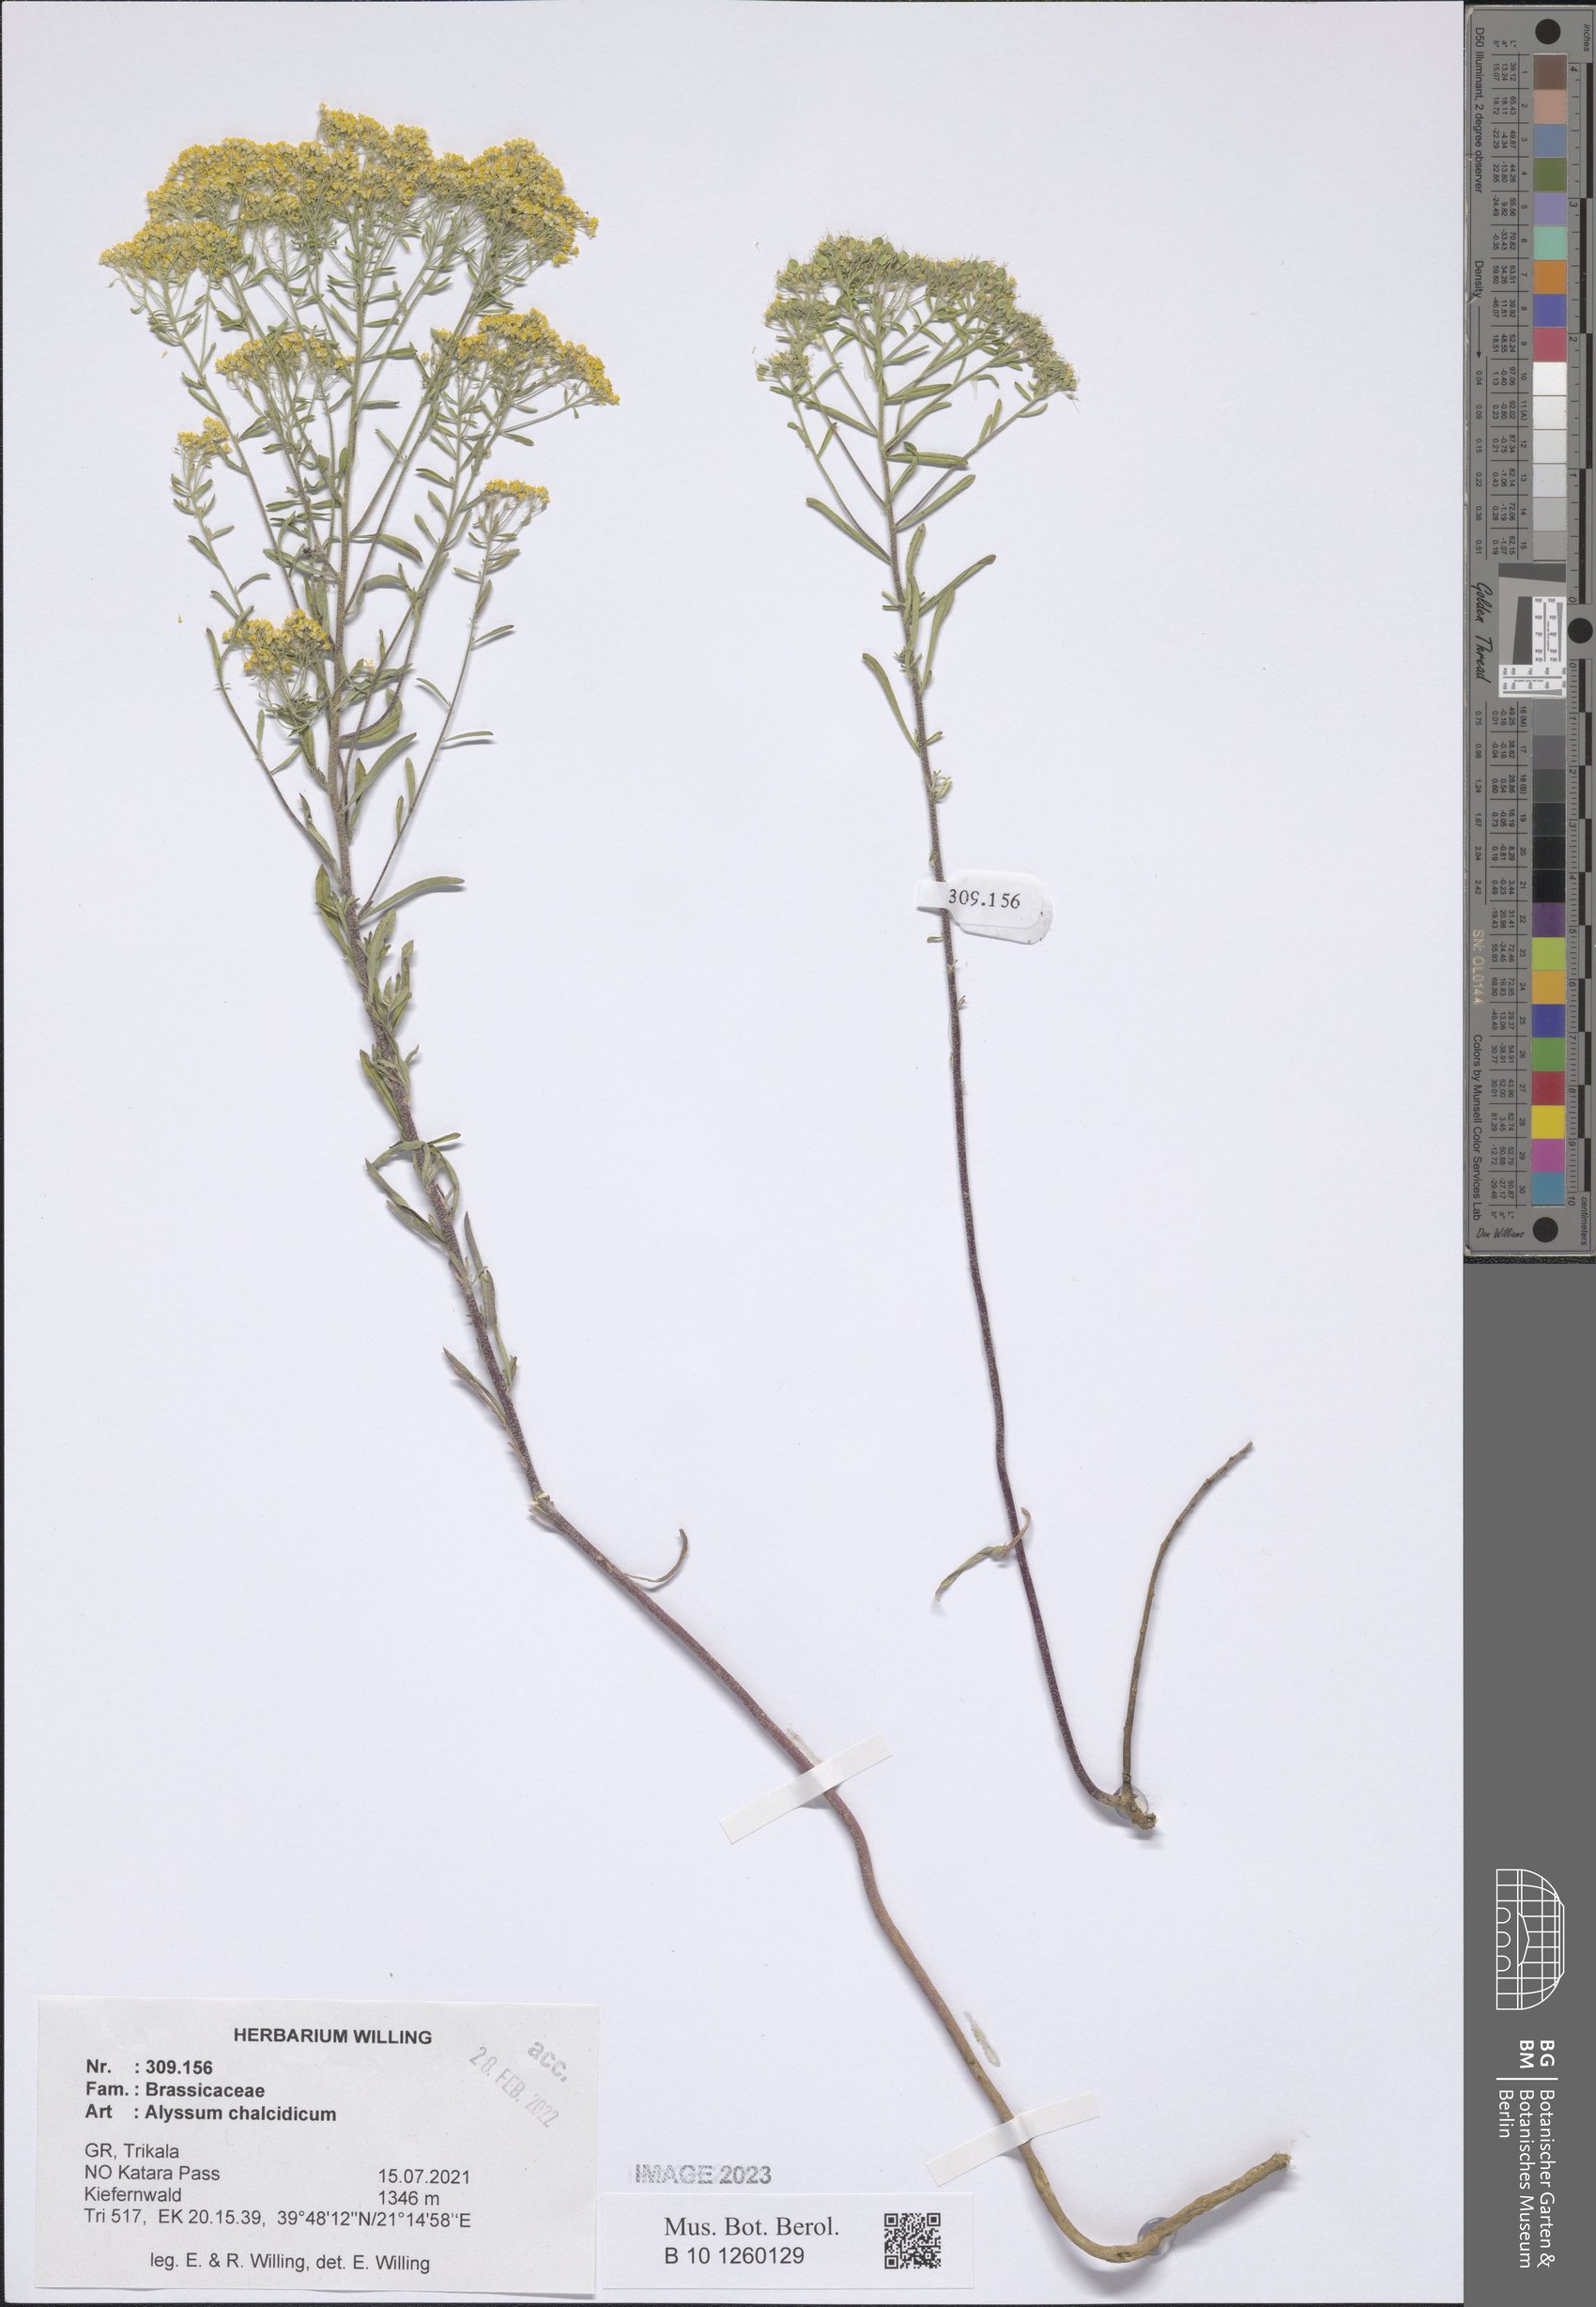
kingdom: Plantae
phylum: Tracheophyta
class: Magnoliopsida
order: Brassicales
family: Brassicaceae
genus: Odontarrhena
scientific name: Odontarrhena chalcidica
